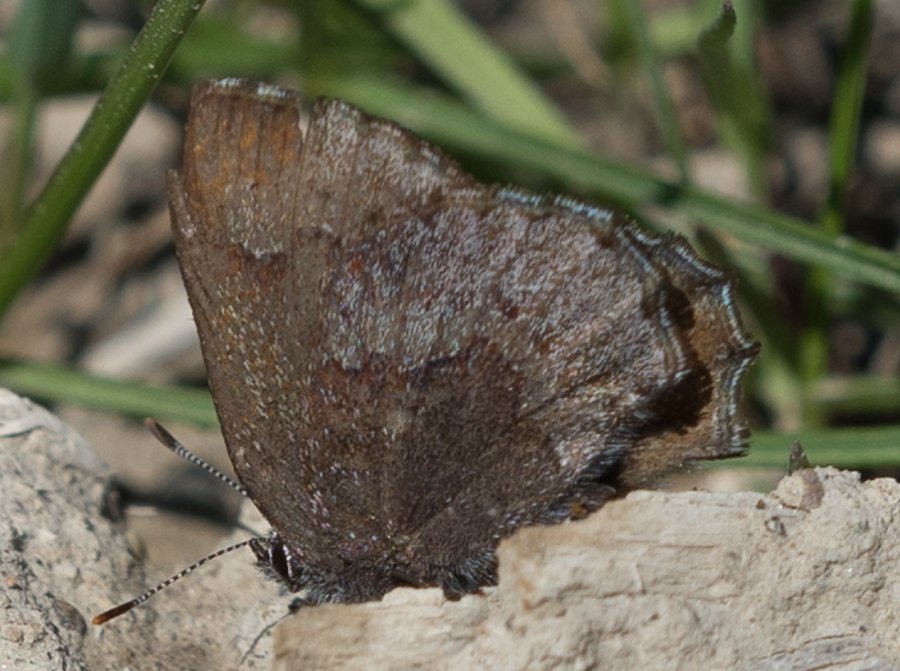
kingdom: Animalia
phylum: Arthropoda
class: Insecta
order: Lepidoptera
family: Lycaenidae
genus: Callophrys
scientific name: Callophrys polios
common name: Hoary Elfin
